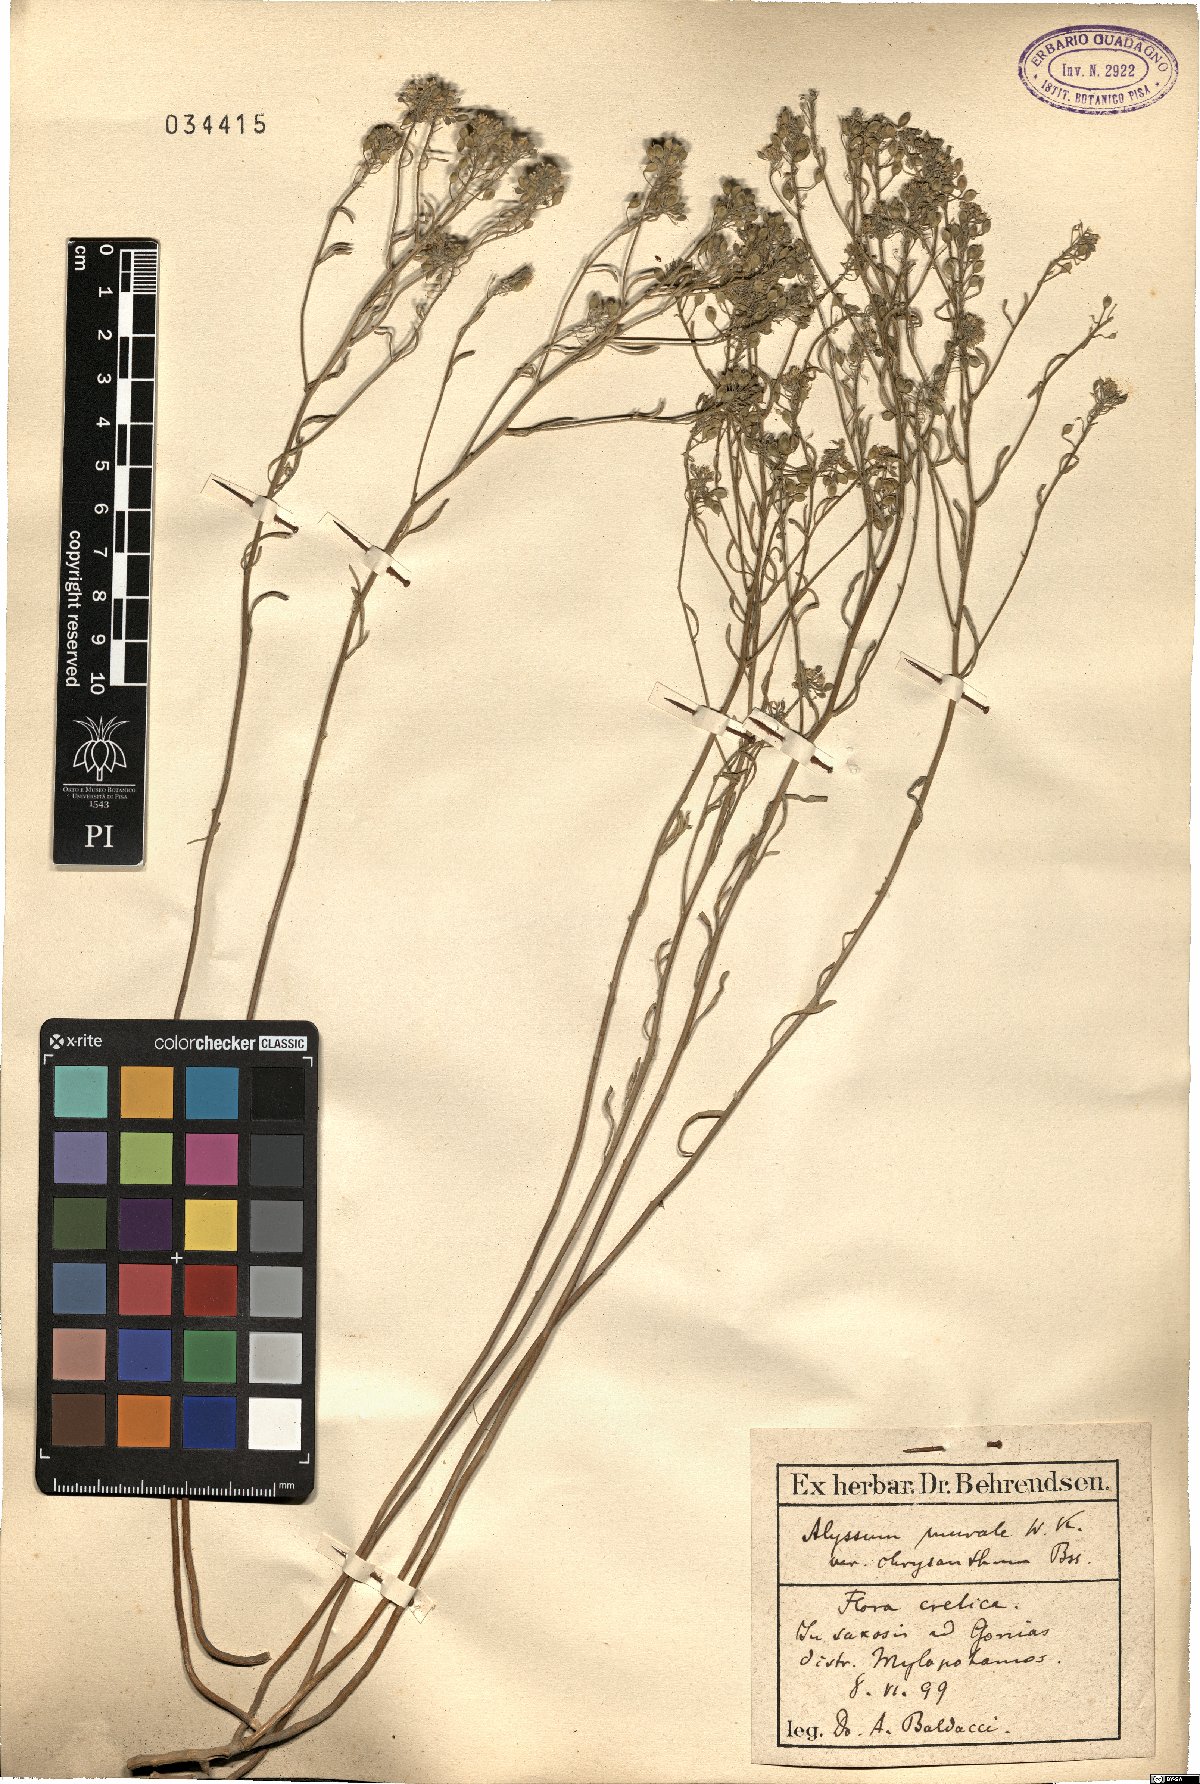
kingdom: Plantae
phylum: Tracheophyta
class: Magnoliopsida
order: Brassicales
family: Brassicaceae
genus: Odontarrhena
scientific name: Odontarrhena muralis
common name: Rock alyssum
